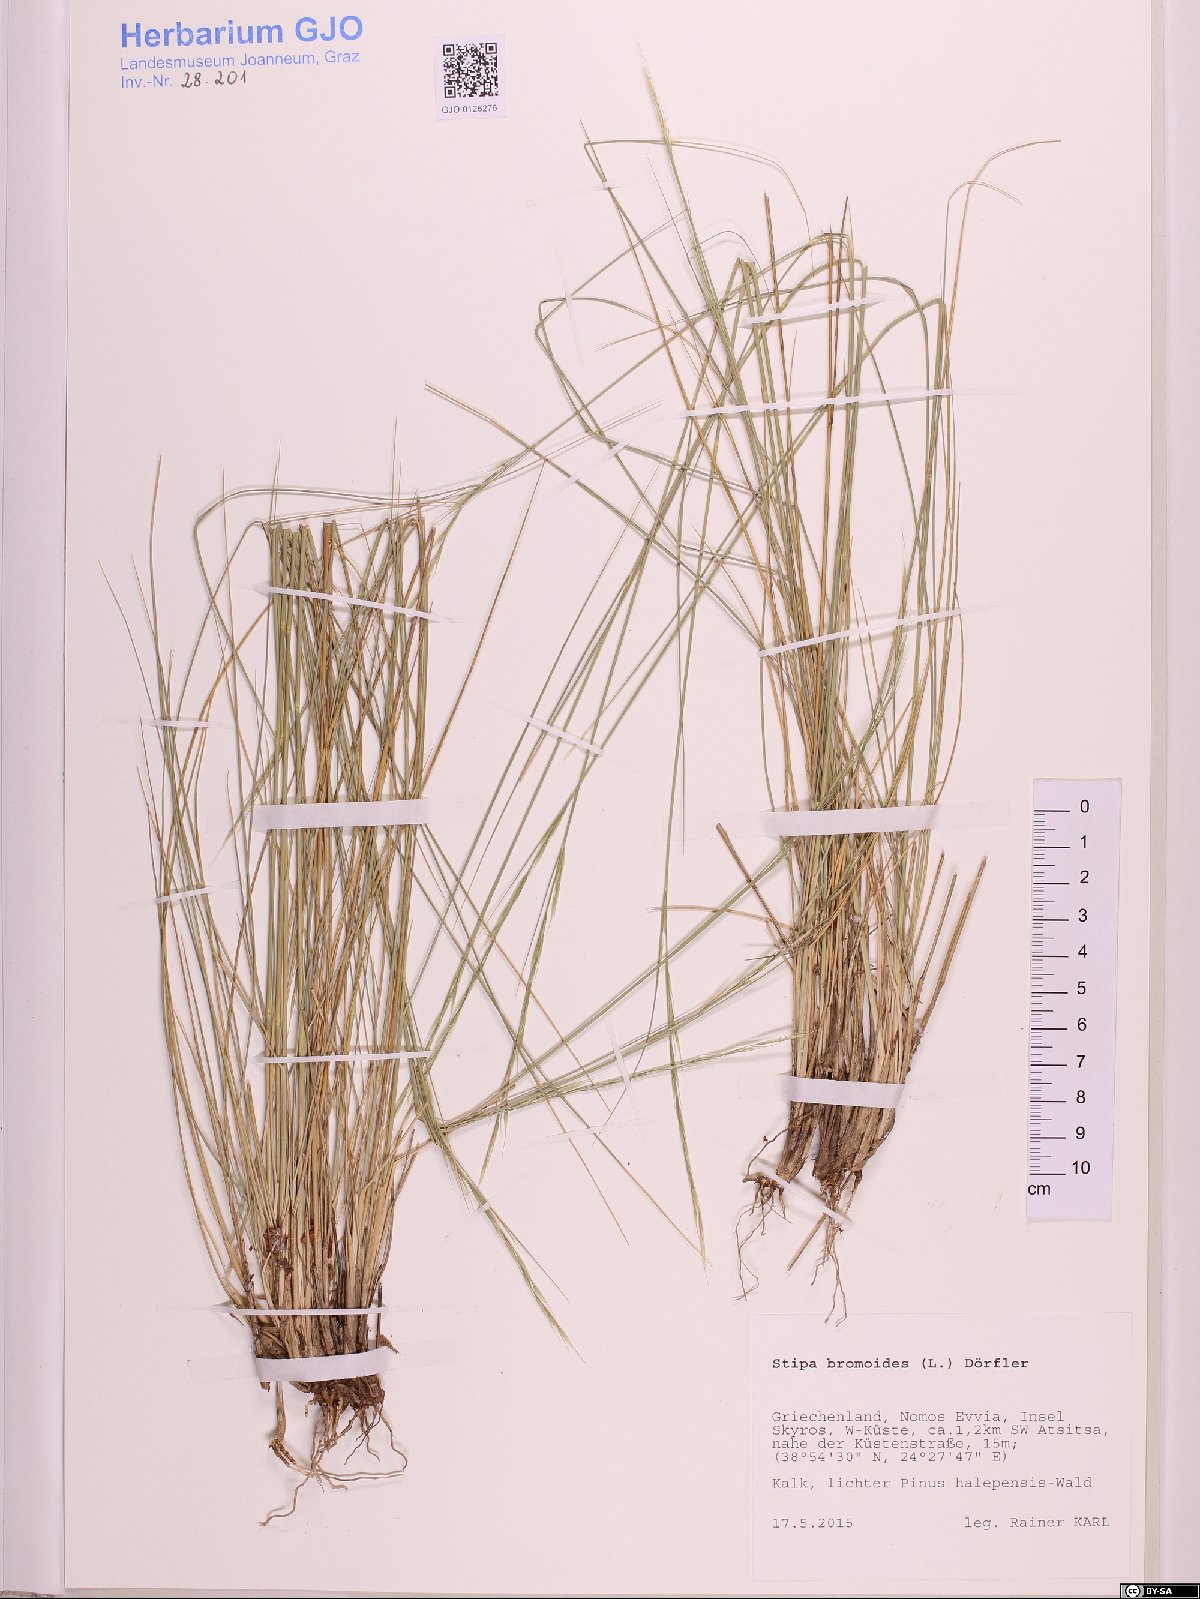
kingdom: Plantae
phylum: Tracheophyta
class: Liliopsida
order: Poales
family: Poaceae
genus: Achnatherum
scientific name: Achnatherum bromoides
